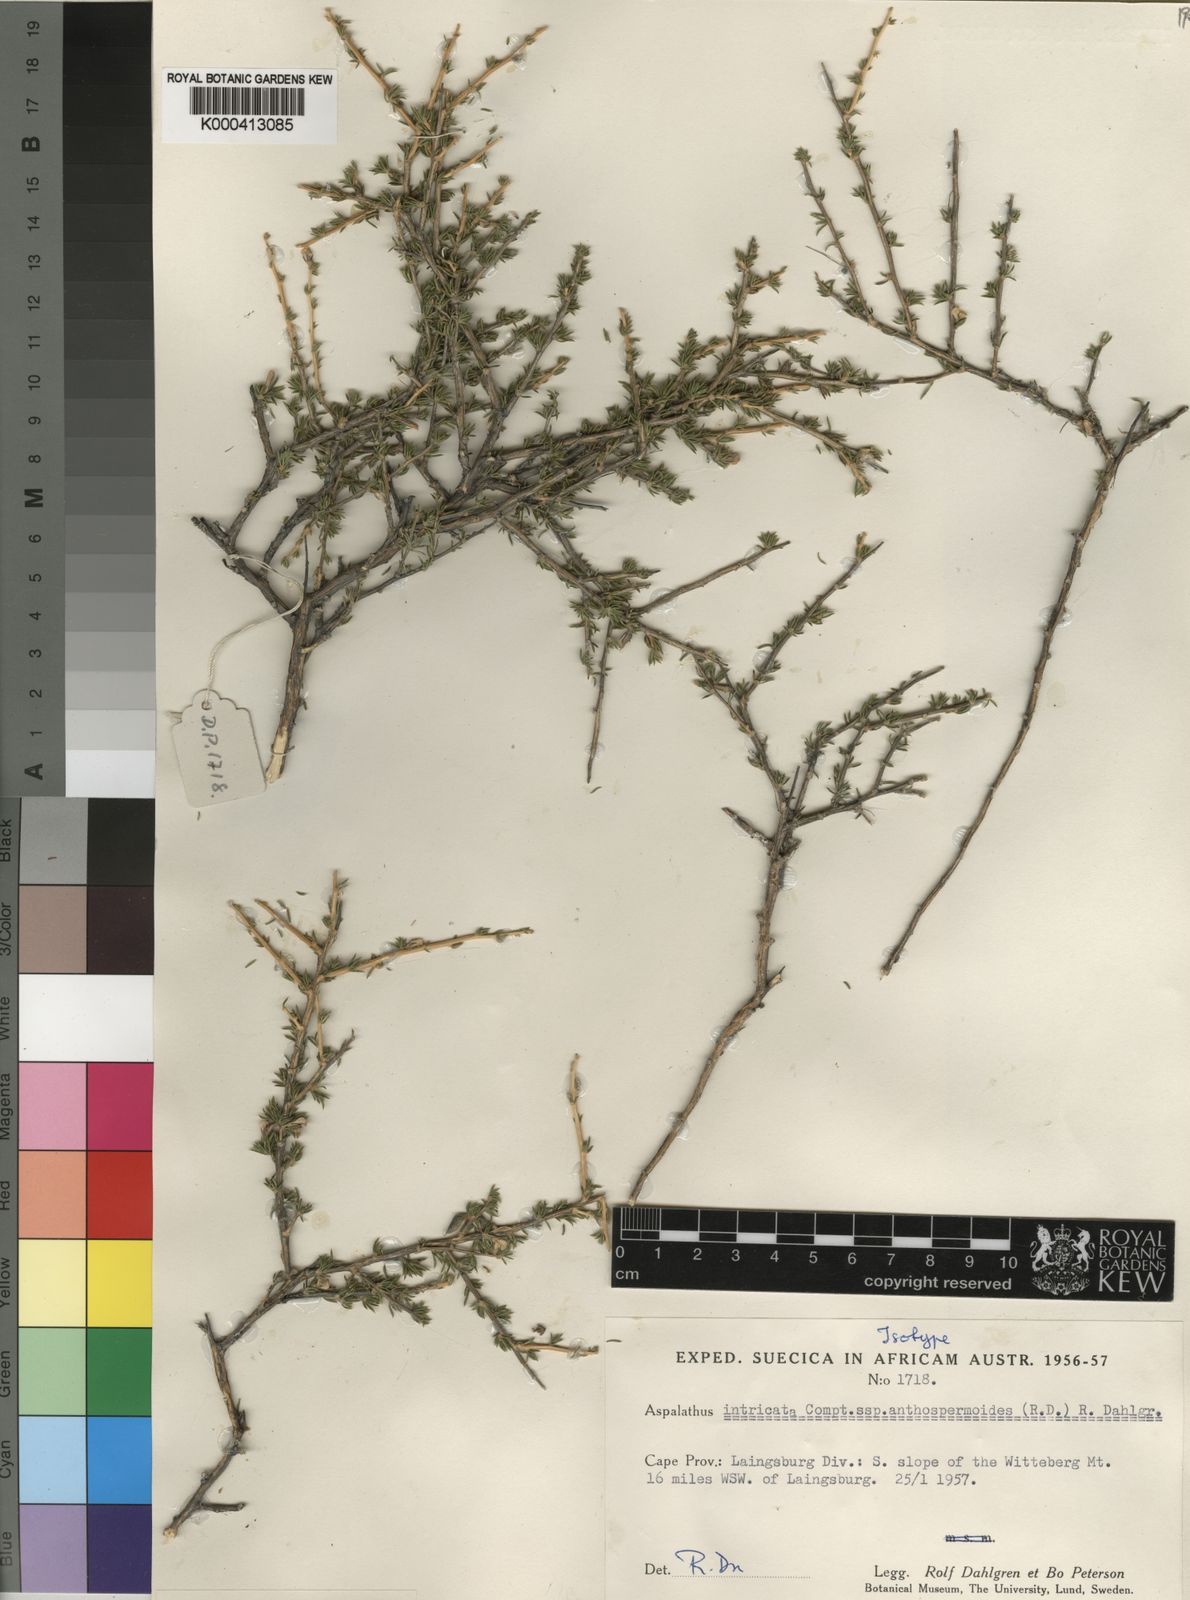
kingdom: Plantae
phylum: Tracheophyta
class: Magnoliopsida
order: Fabales
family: Fabaceae
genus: Aspalathus
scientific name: Aspalathus intricata
